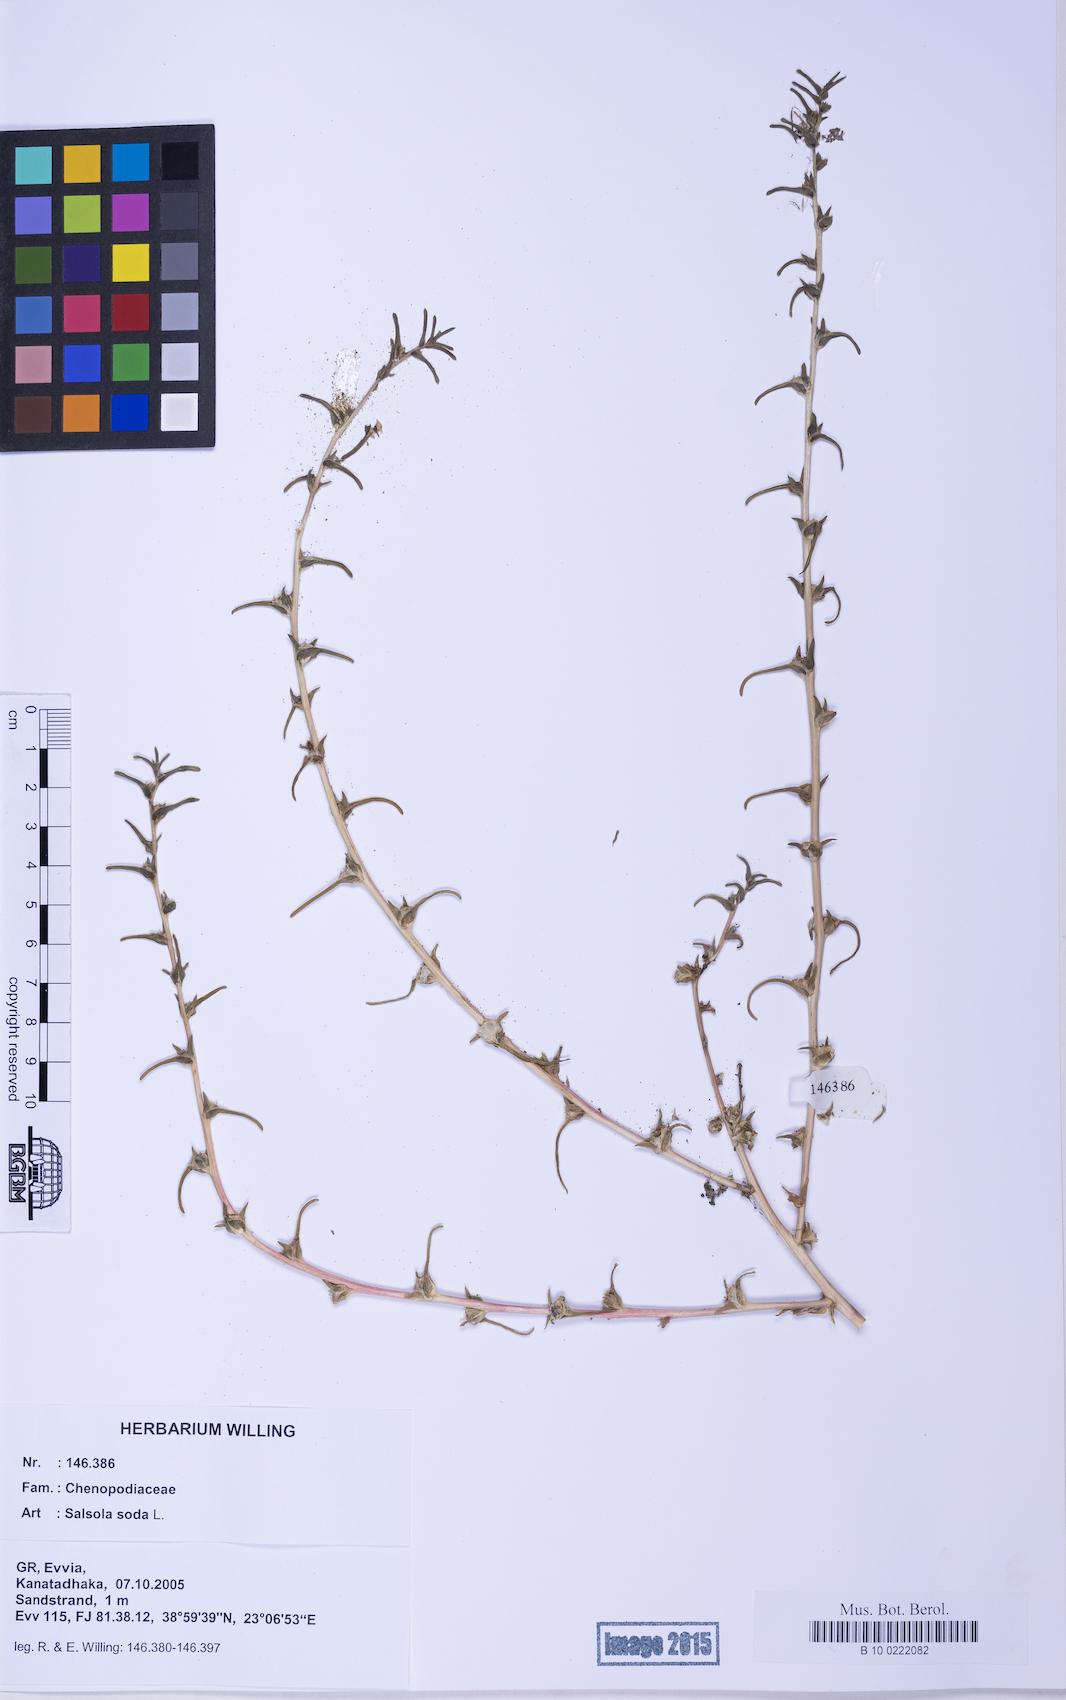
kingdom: Plantae
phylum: Tracheophyta
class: Magnoliopsida
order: Caryophyllales
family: Amaranthaceae
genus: Soda
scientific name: Soda inermis
